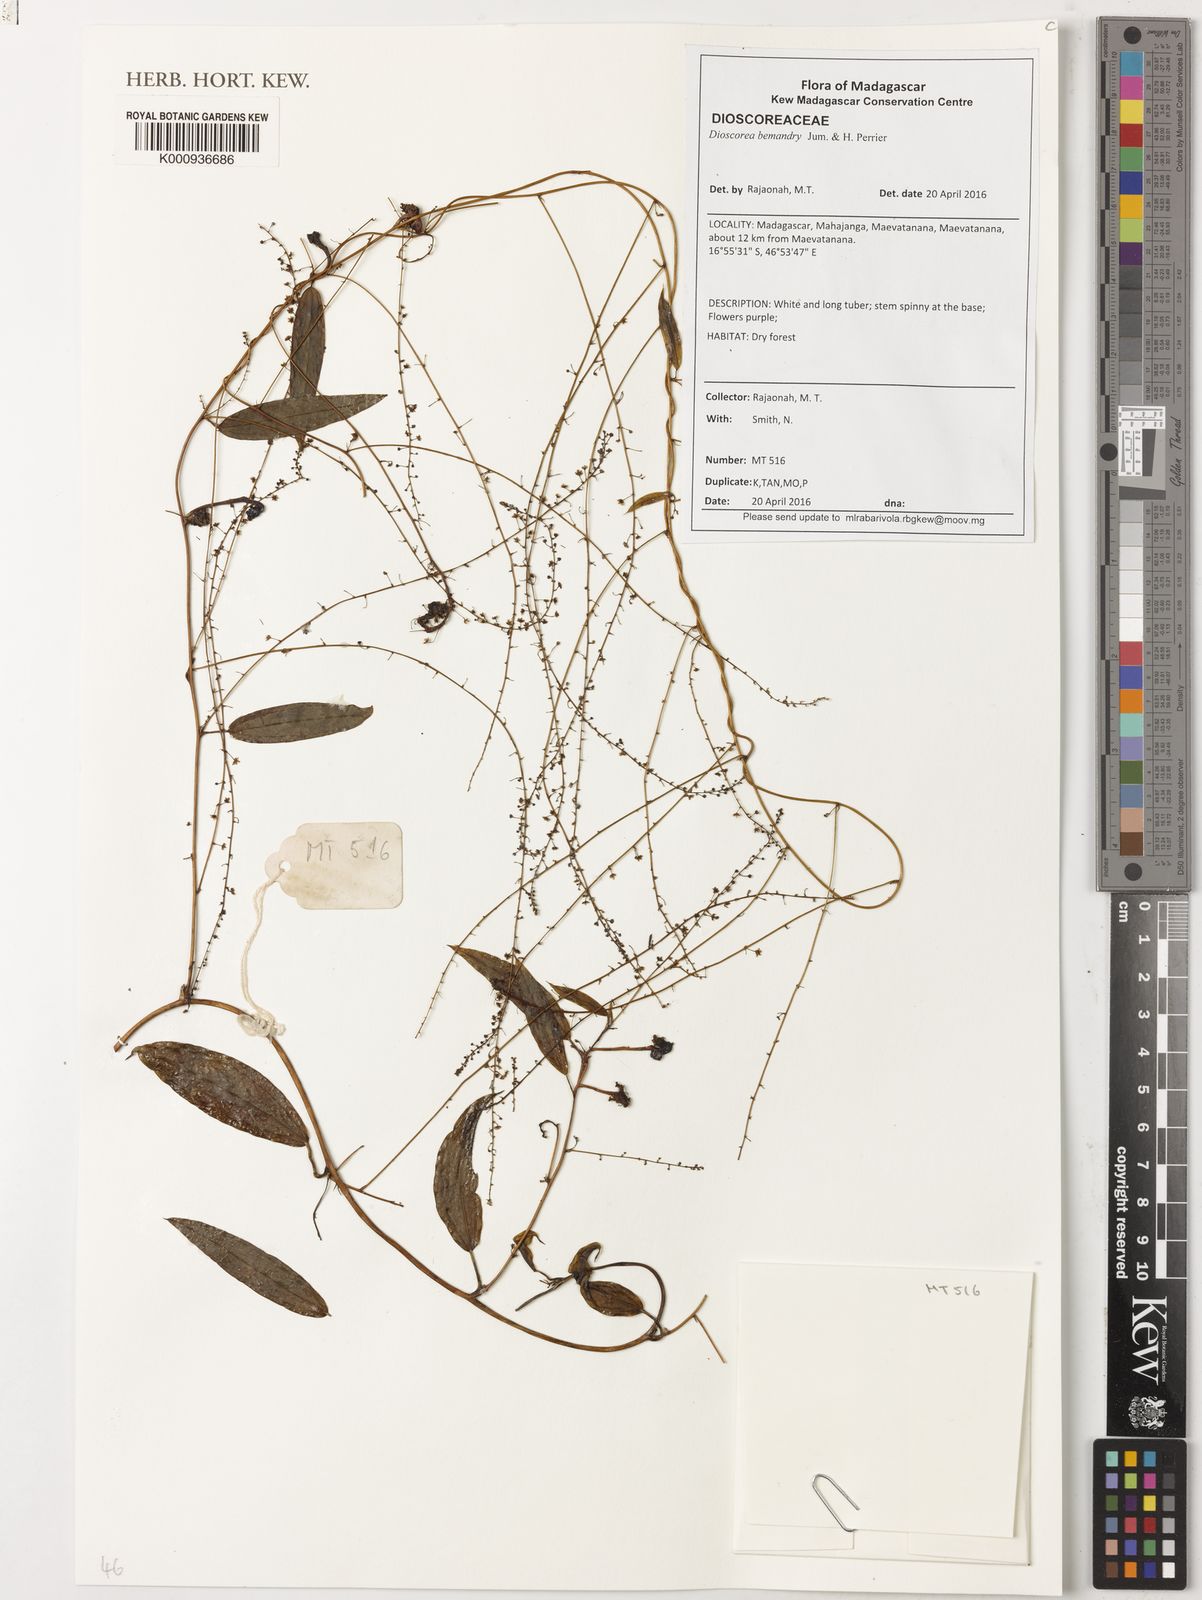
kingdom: Plantae
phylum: Tracheophyta
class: Liliopsida
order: Dioscoreales
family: Dioscoreaceae
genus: Dioscorea
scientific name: Dioscorea bemandry
